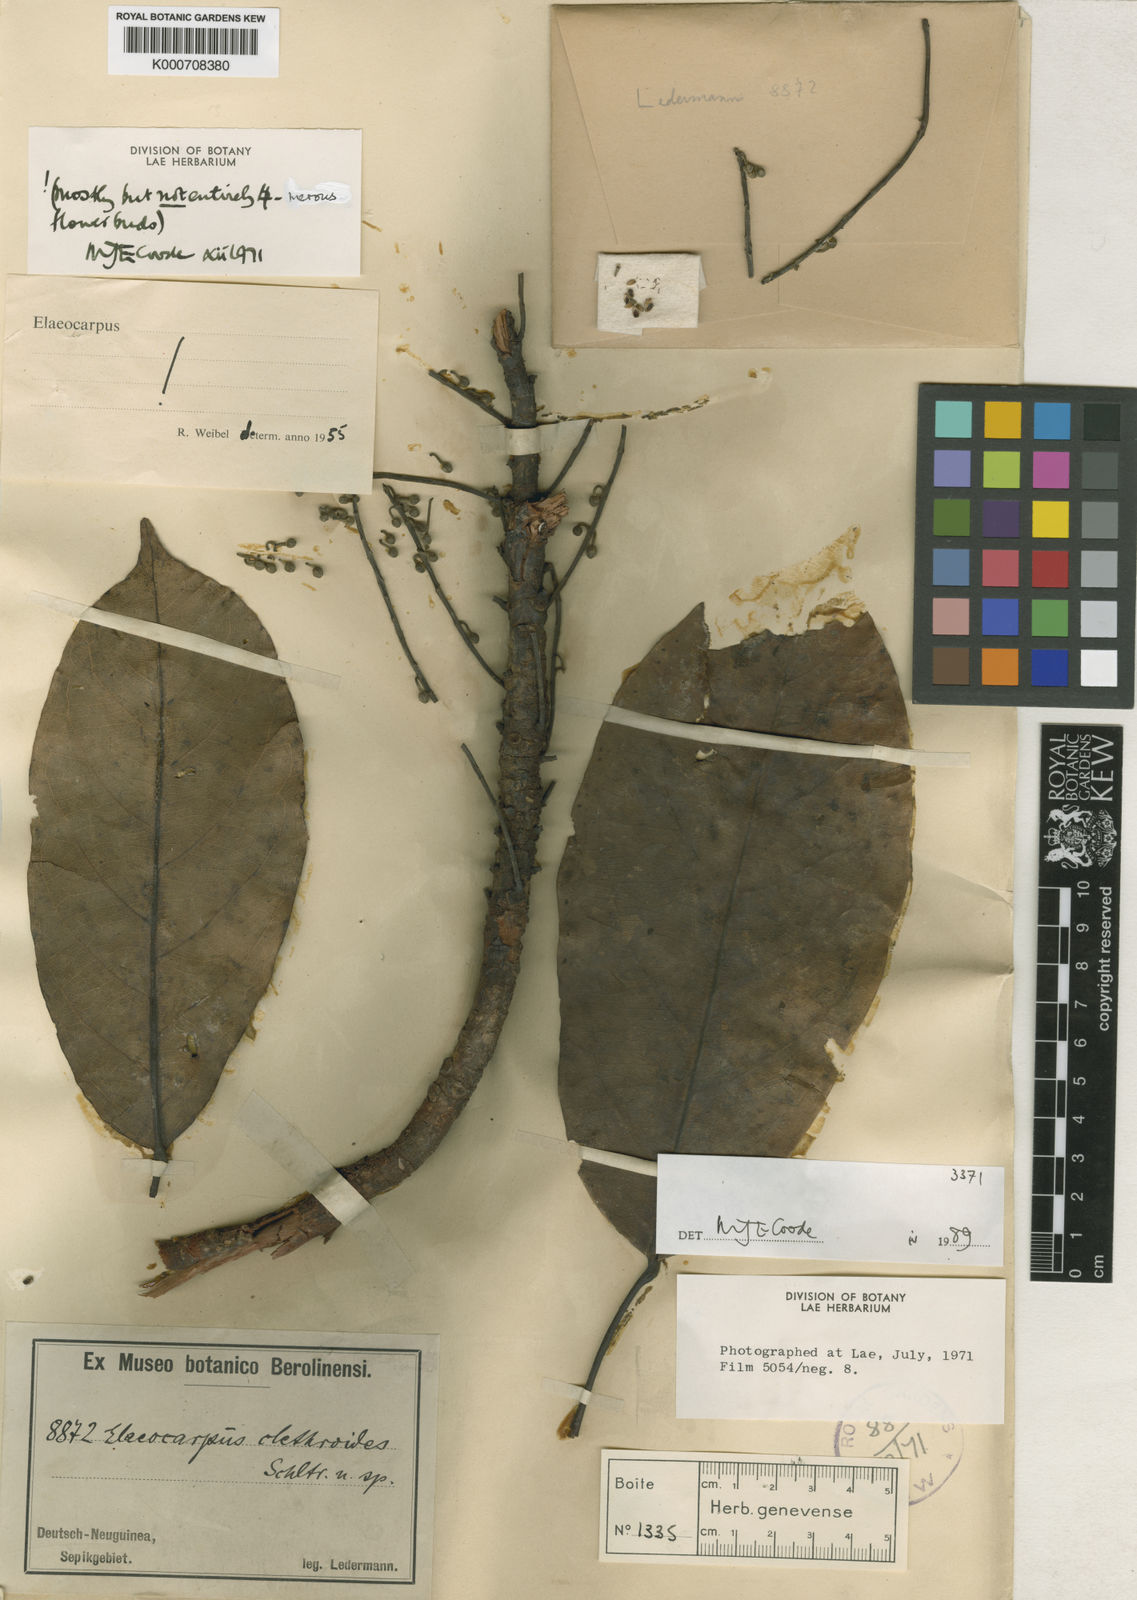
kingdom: Plantae
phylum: Tracheophyta
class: Magnoliopsida
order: Oxalidales
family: Elaeocarpaceae
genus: Elaeocarpus
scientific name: Elaeocarpus clethroides
